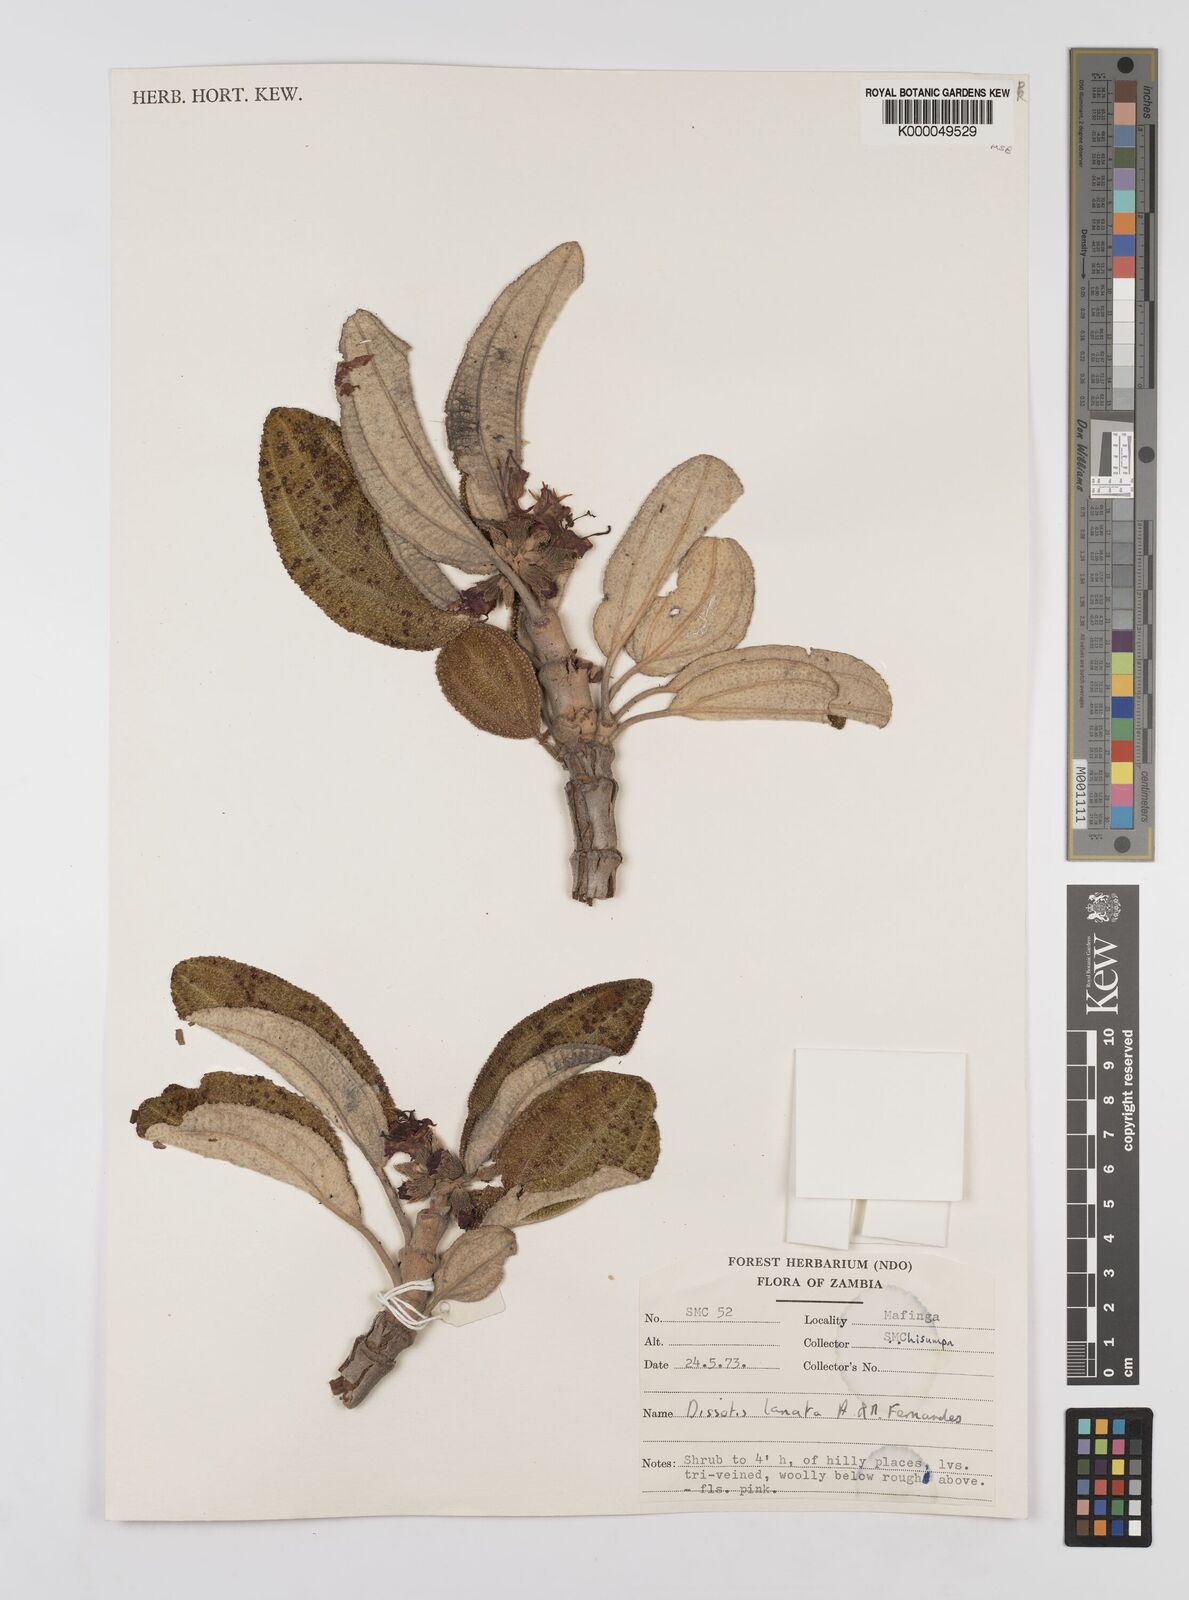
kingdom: Plantae
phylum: Tracheophyta
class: Magnoliopsida
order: Myrtales
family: Melastomataceae
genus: Dissotidendron
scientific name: Dissotidendron lanatum
